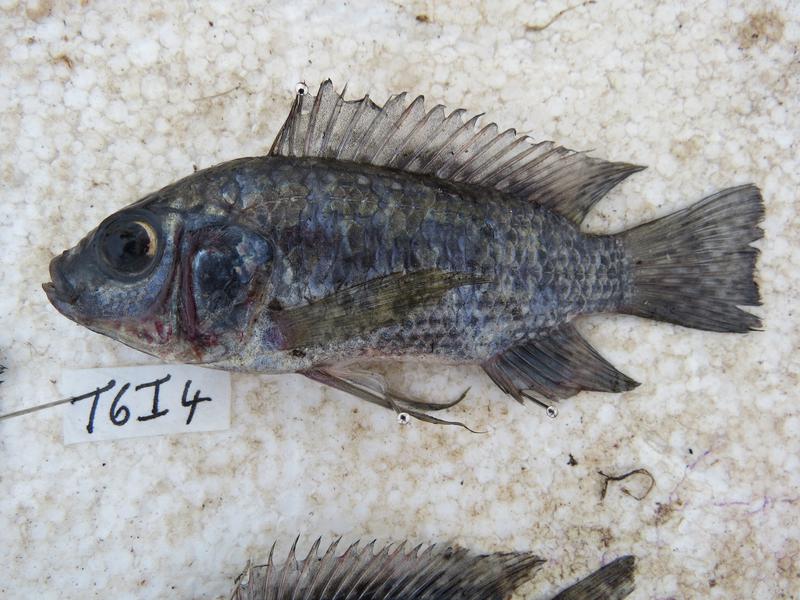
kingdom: Animalia
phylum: Chordata
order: Perciformes
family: Cichlidae
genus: Oreochromis
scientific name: Oreochromis leucostictus
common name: Blue spotted tilapia
